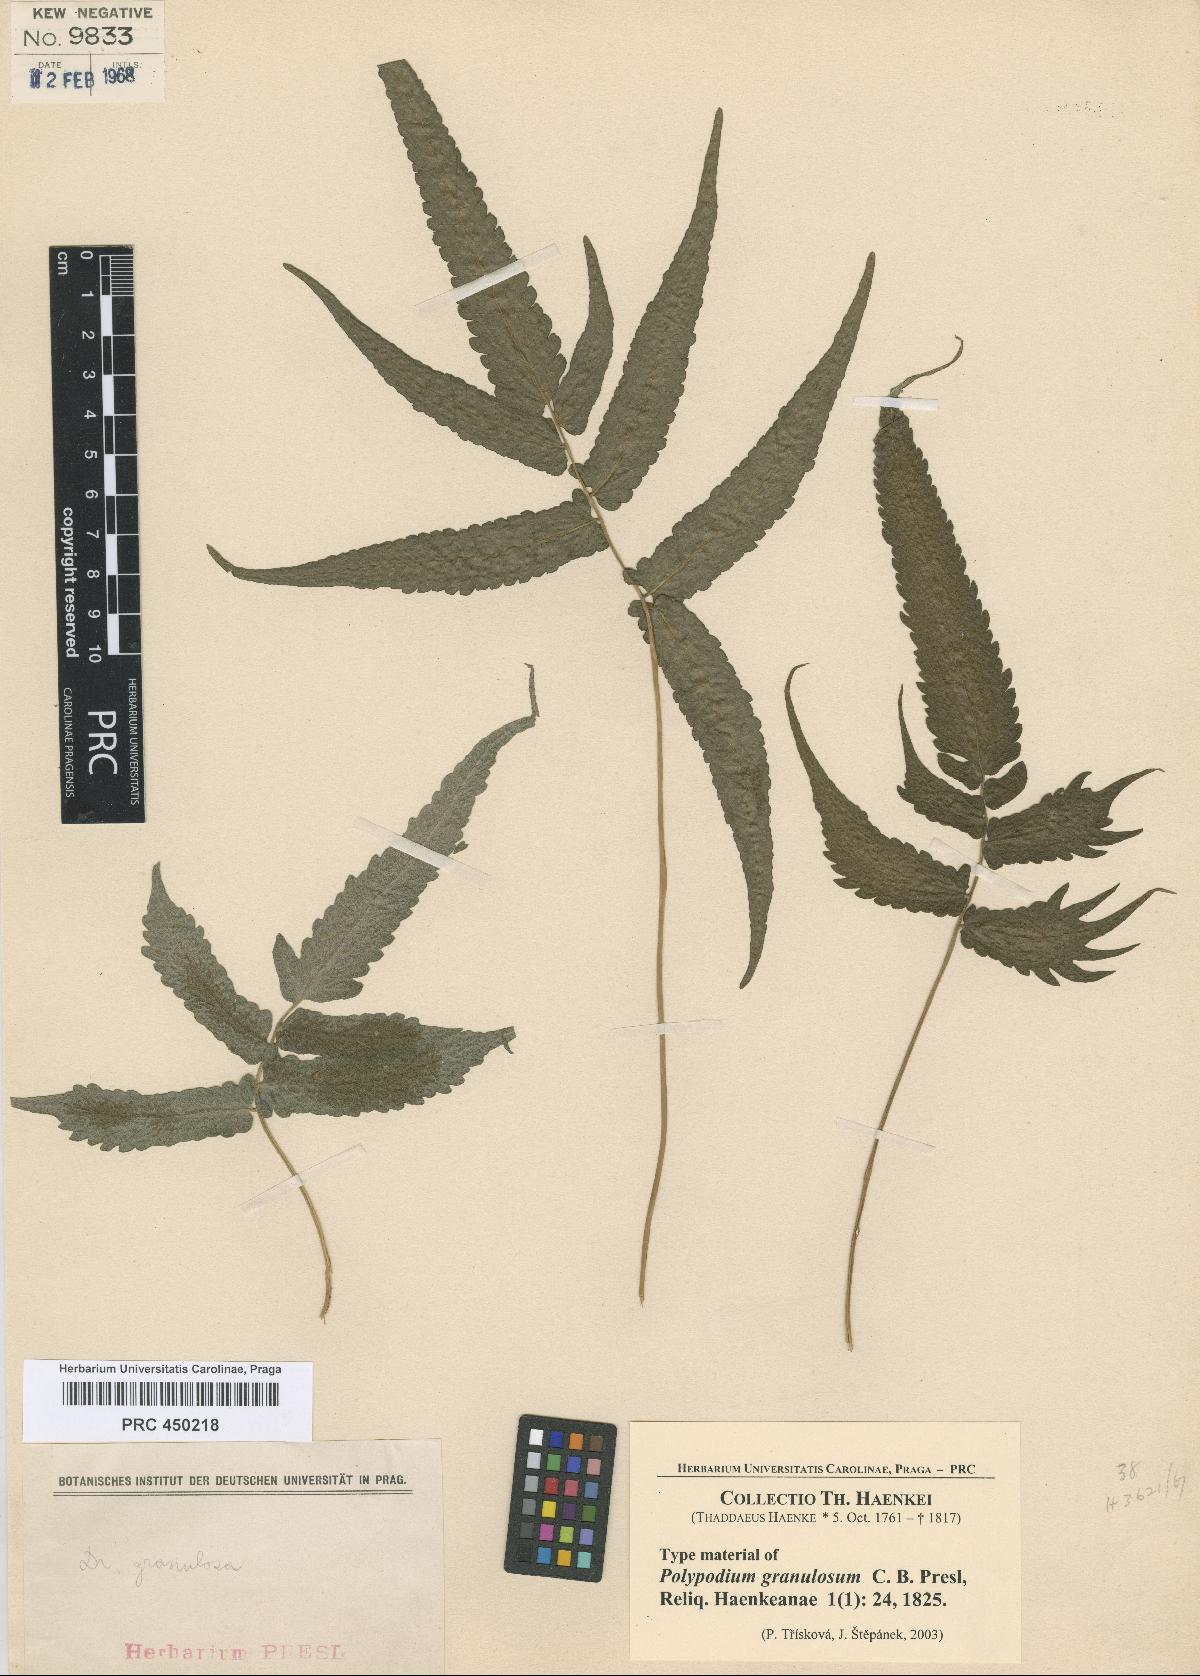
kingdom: Plantae
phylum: Tracheophyta
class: Polypodiopsida
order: Polypodiales
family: Thelypteridaceae
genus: Pronephrium
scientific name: Pronephrium granulosum
